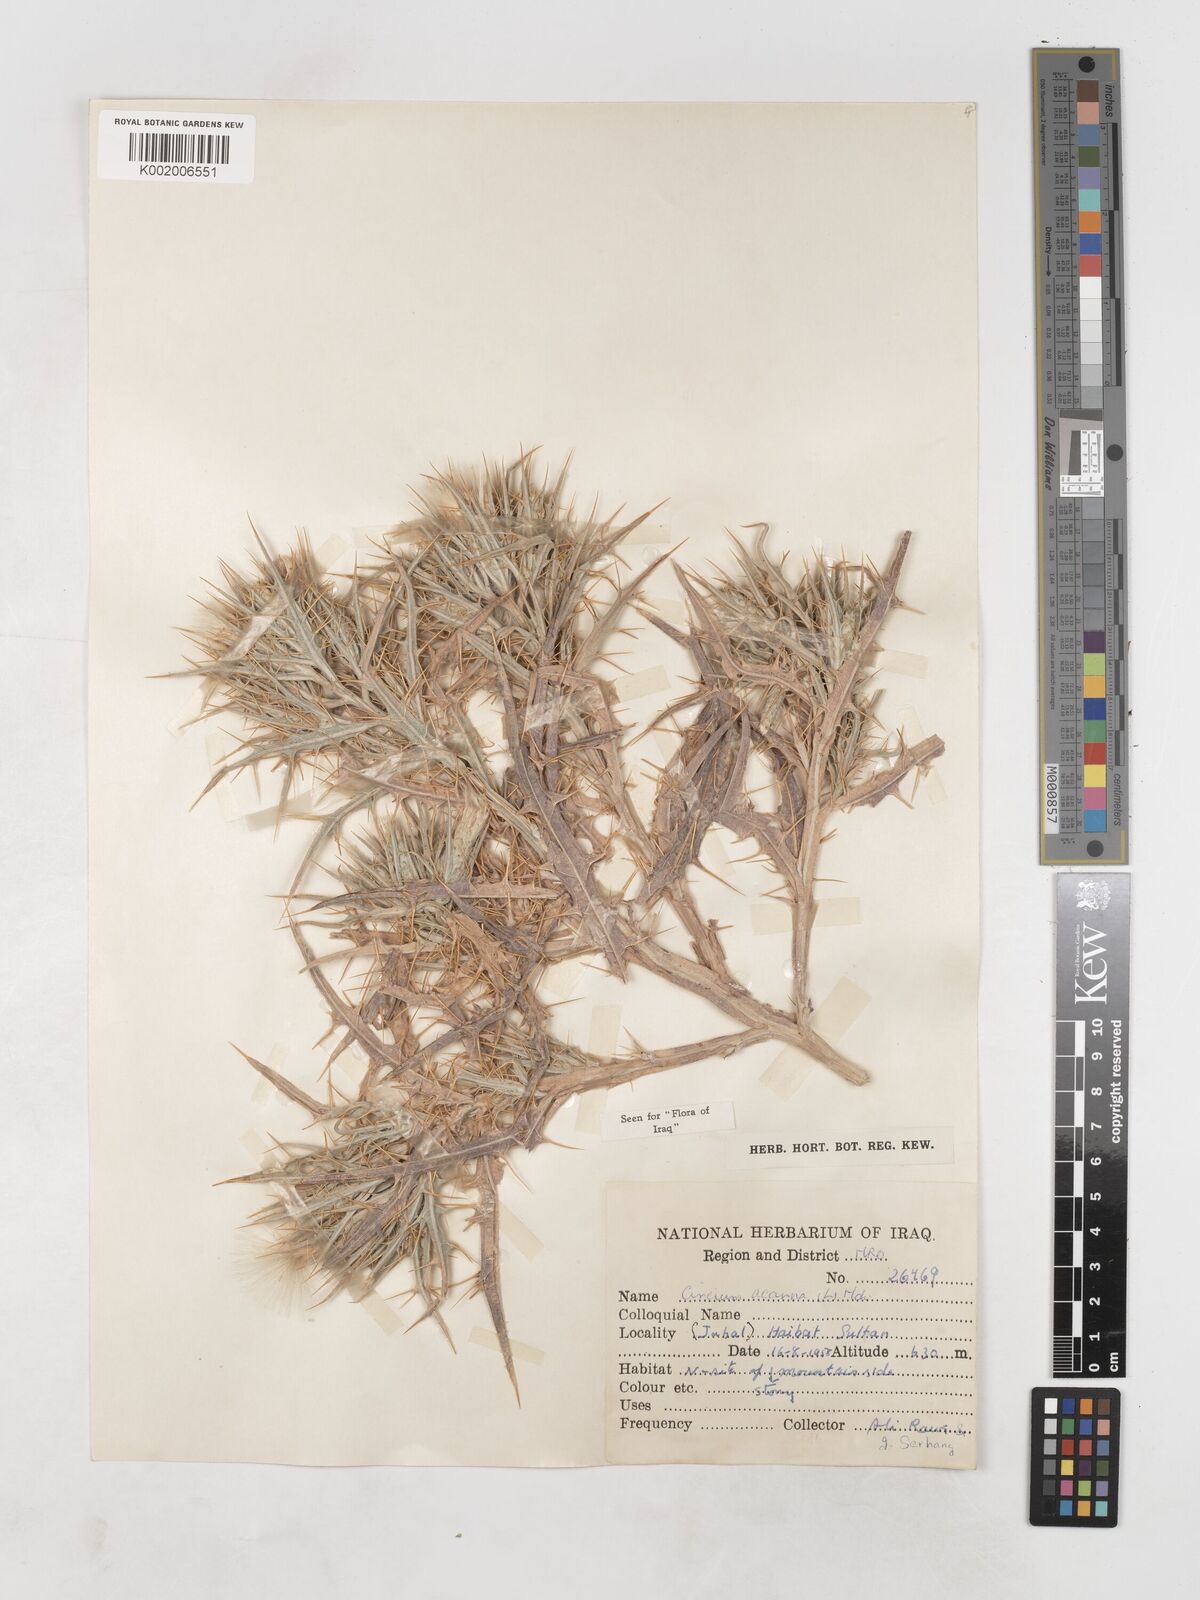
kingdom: Plantae
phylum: Tracheophyta
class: Magnoliopsida
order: Asterales
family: Asteraceae
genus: Picnomon
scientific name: Picnomon acarna
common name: Soldier thistle
